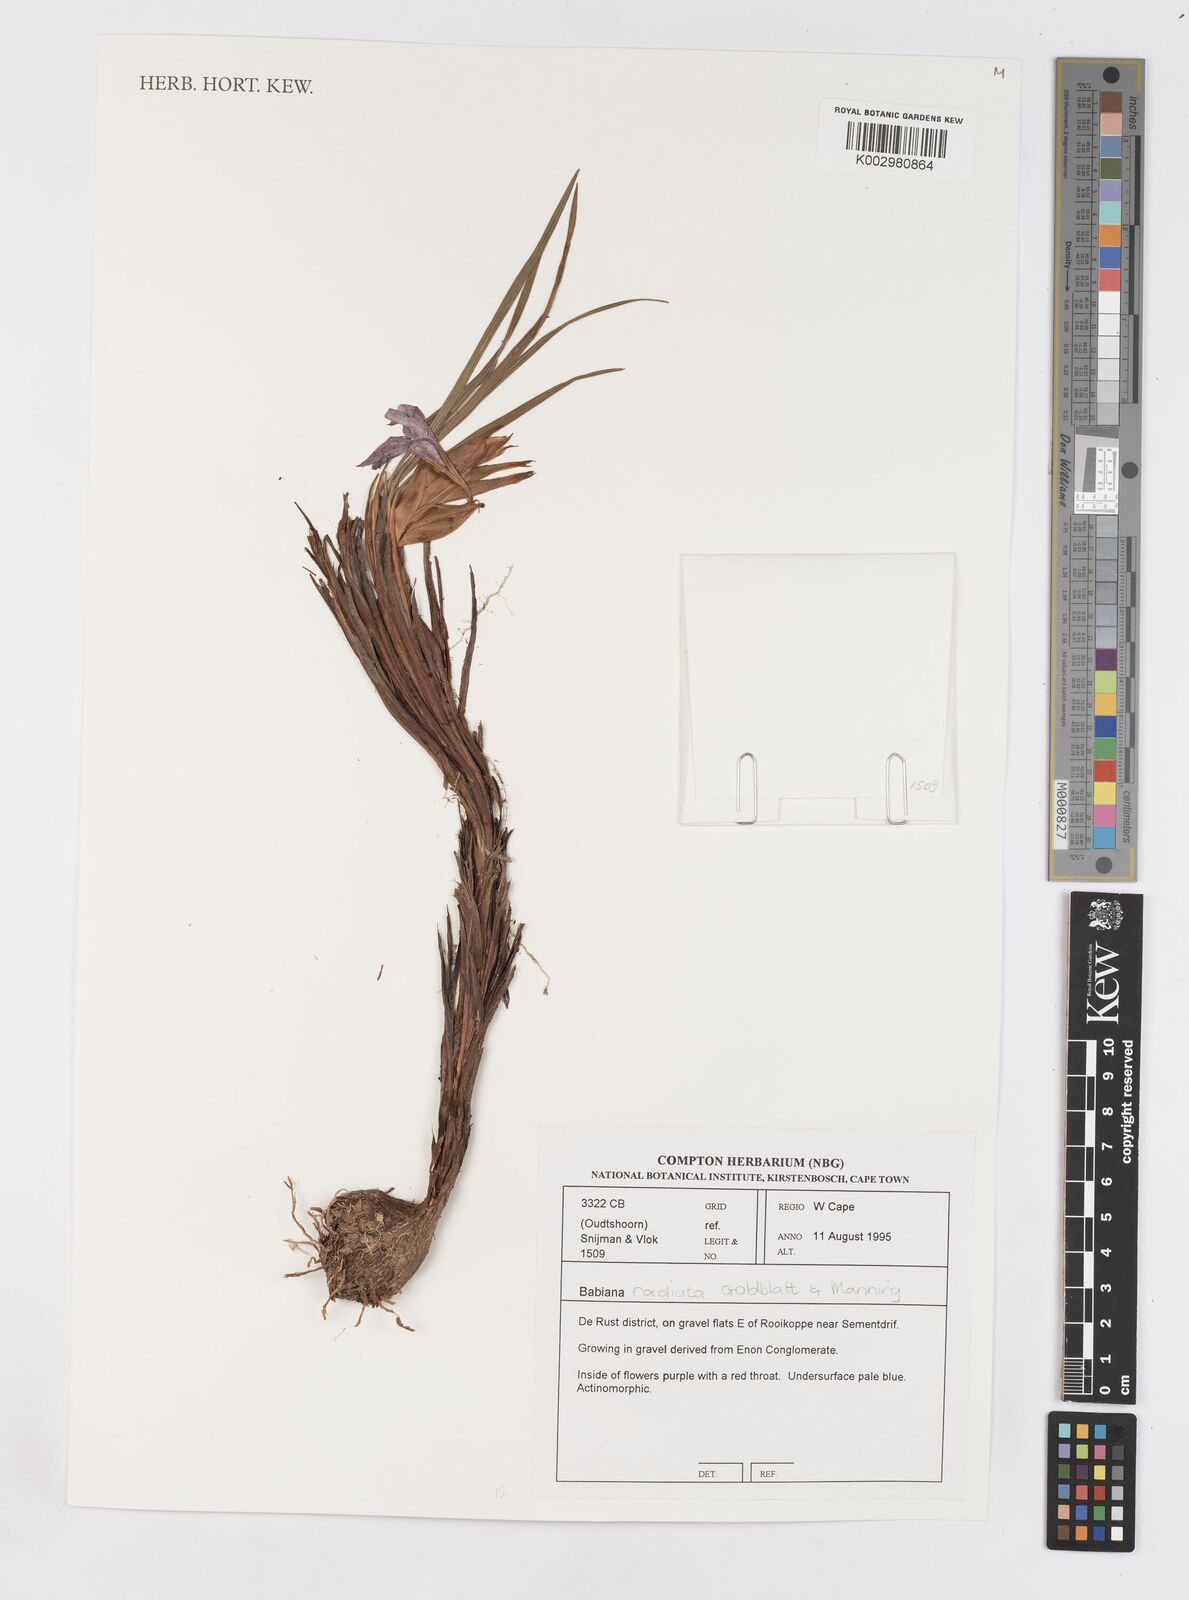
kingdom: Plantae
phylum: Tracheophyta
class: Liliopsida
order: Asparagales
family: Iridaceae
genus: Babiana
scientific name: Babiana radiata
